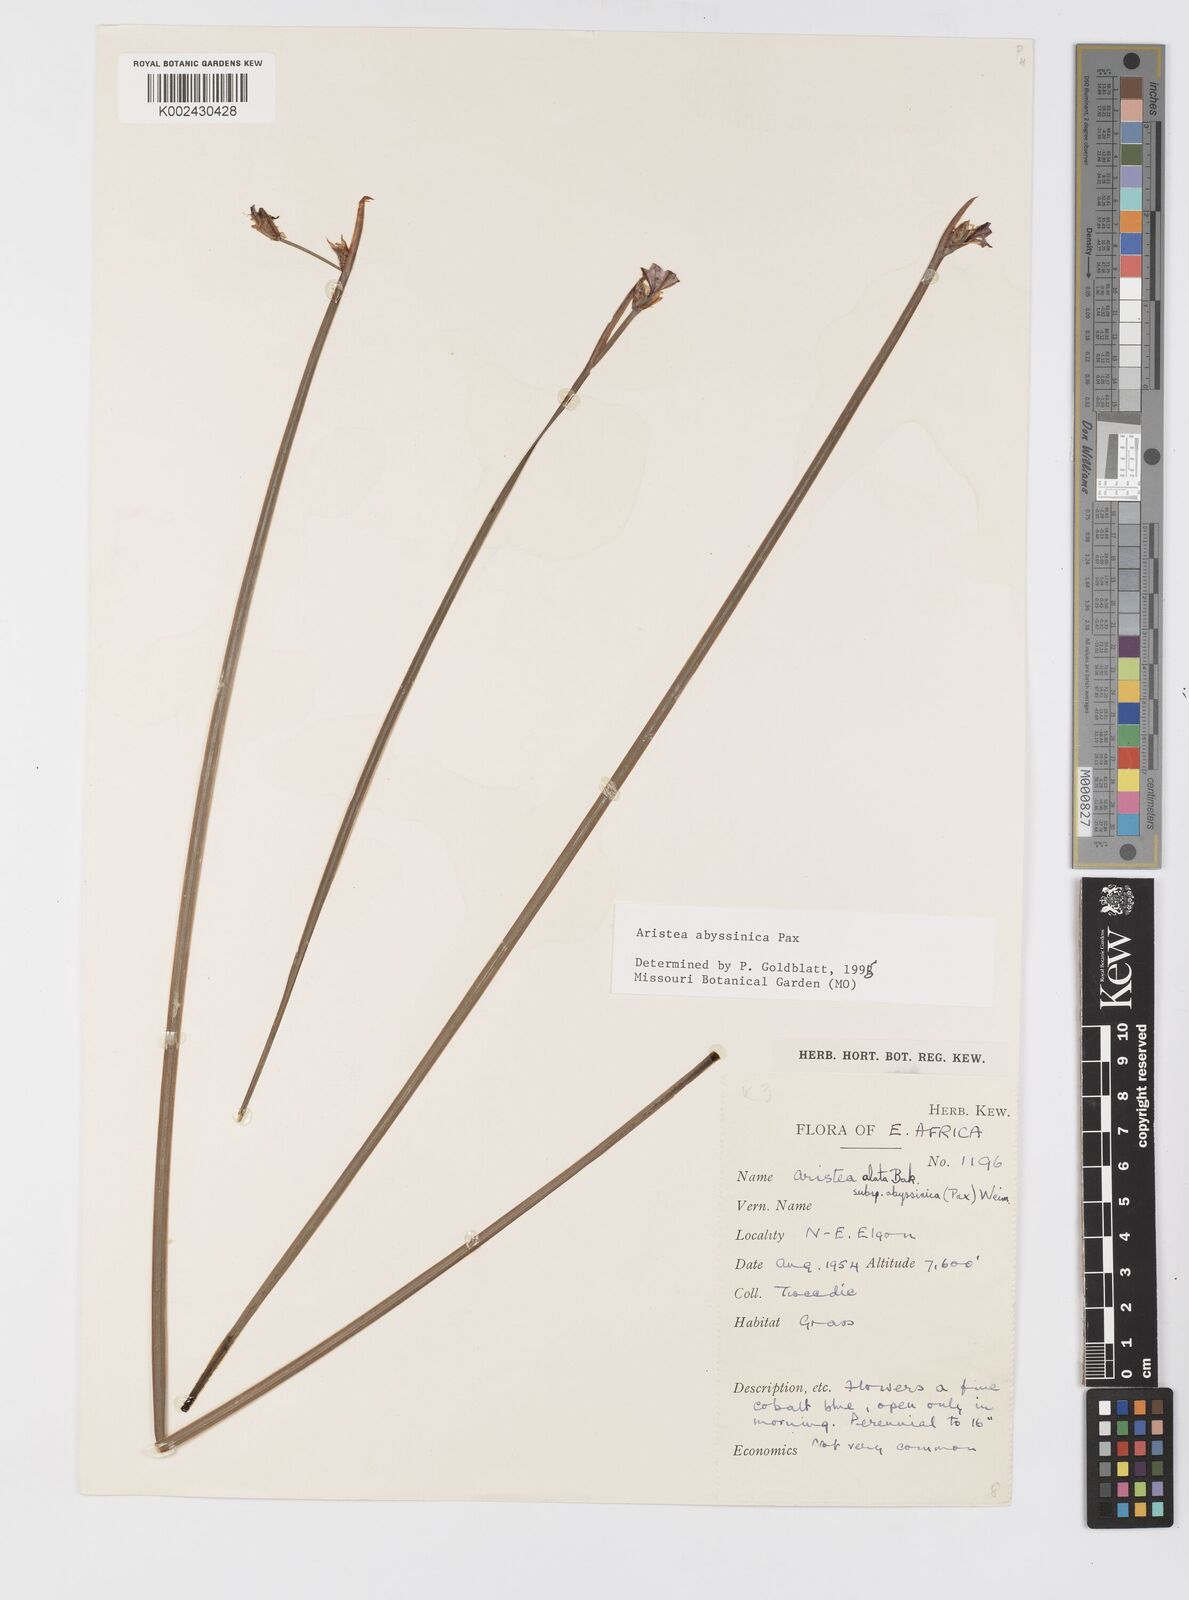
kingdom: Plantae
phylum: Tracheophyta
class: Liliopsida
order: Asparagales
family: Iridaceae
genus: Aristea
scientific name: Aristea abyssinica
